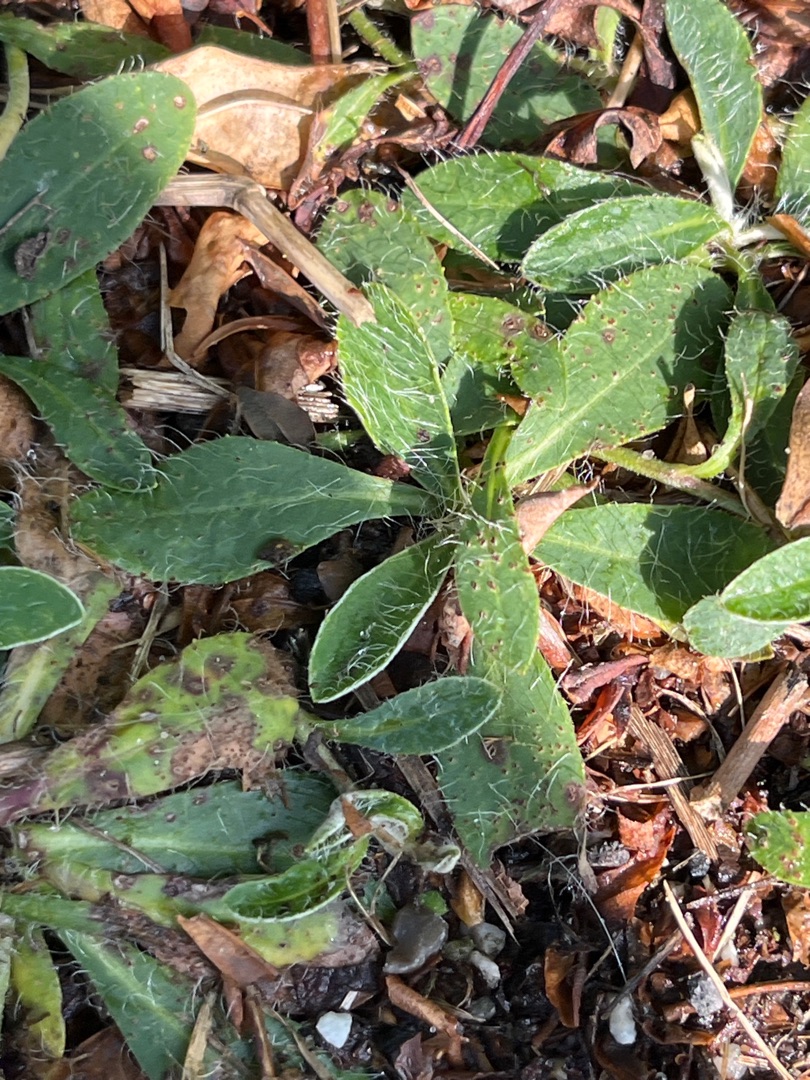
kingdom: Plantae
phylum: Tracheophyta
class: Magnoliopsida
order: Asterales
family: Asteraceae
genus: Pilosella
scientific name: Pilosella officinarum
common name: Håret høgeurt
